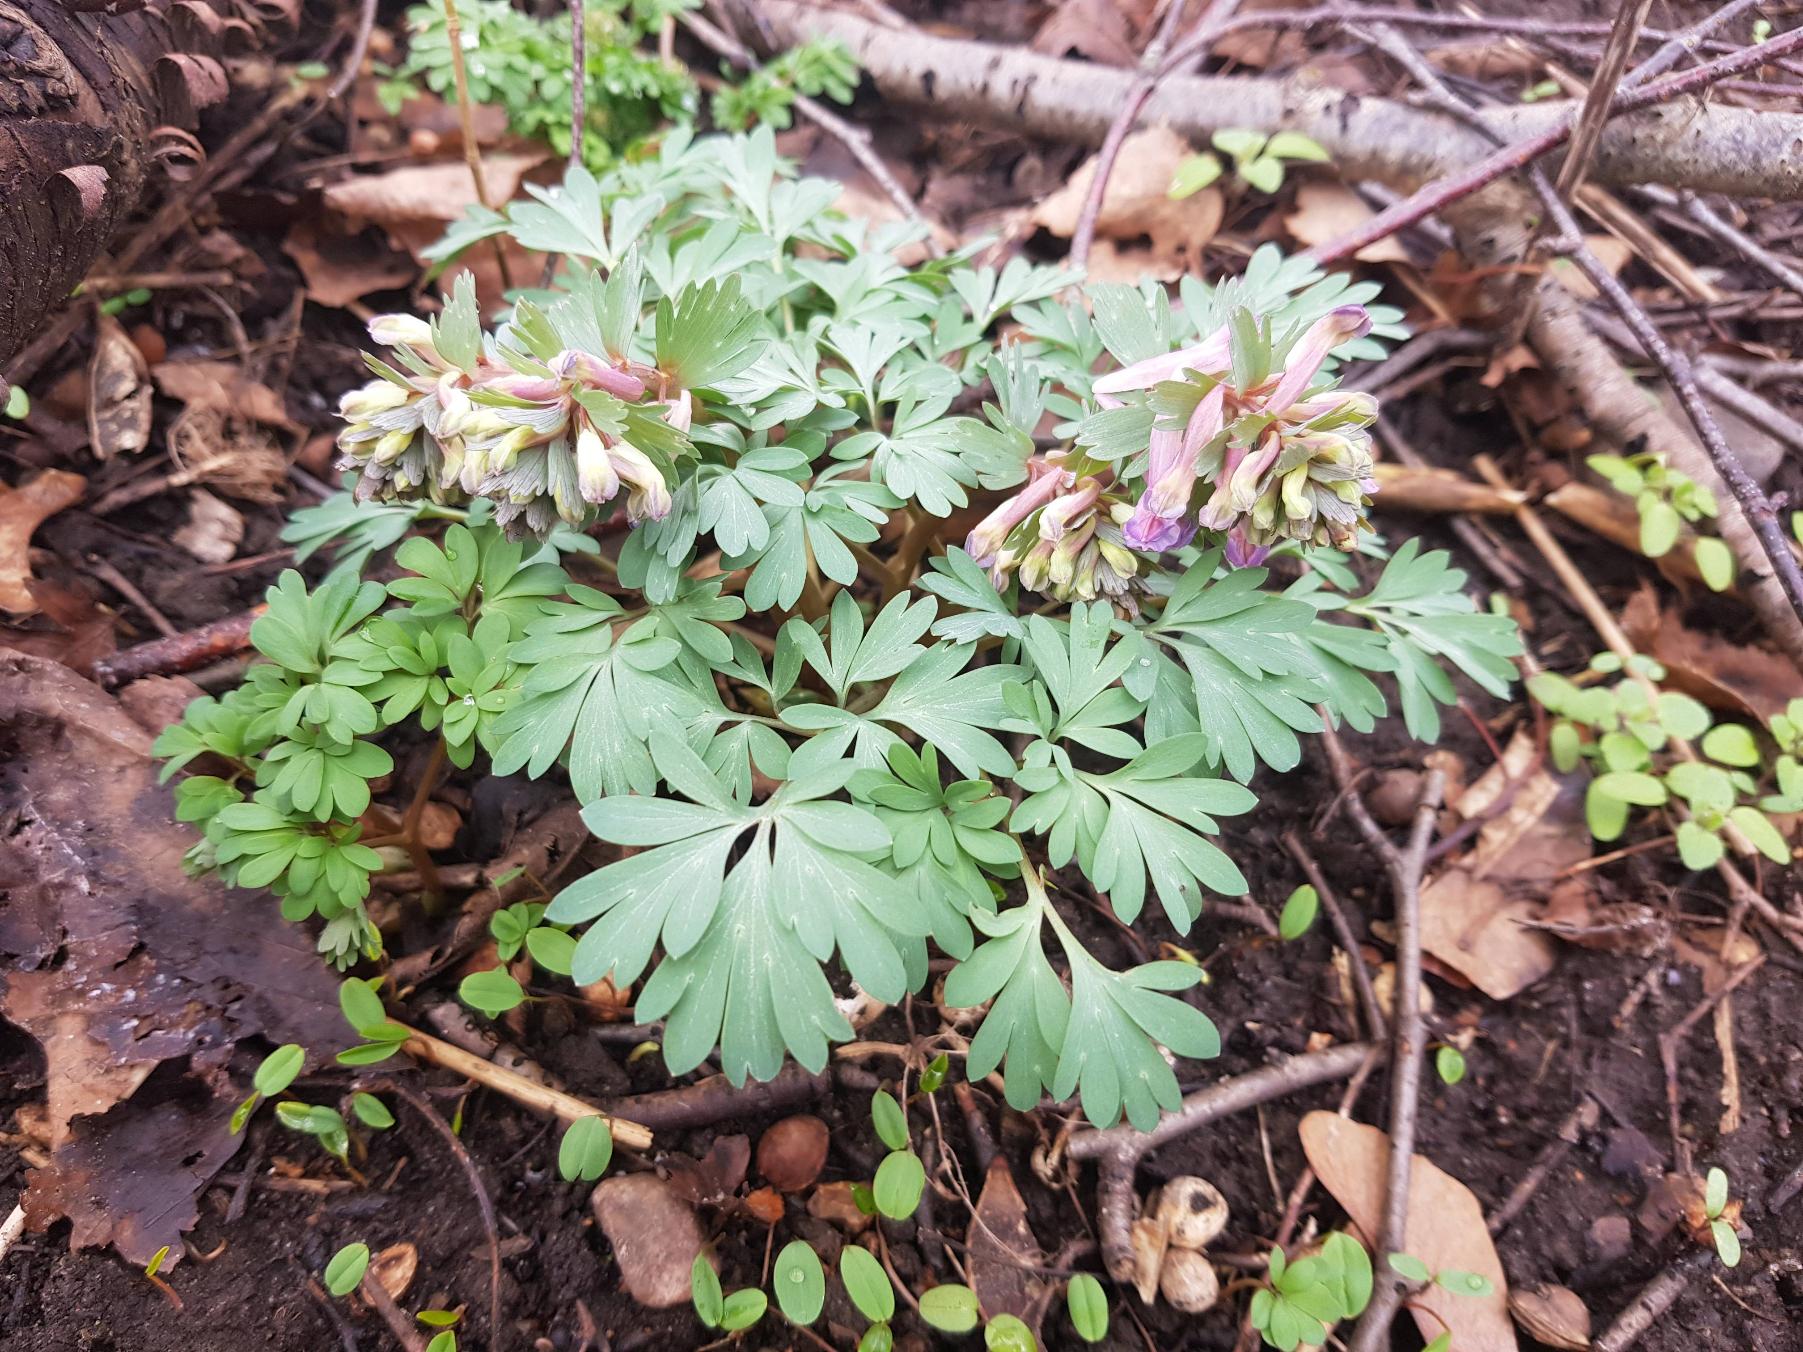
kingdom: Plantae
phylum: Tracheophyta
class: Magnoliopsida
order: Ranunculales
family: Papaveraceae
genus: Corydalis
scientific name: Corydalis solida
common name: Langstilket lærkespore
